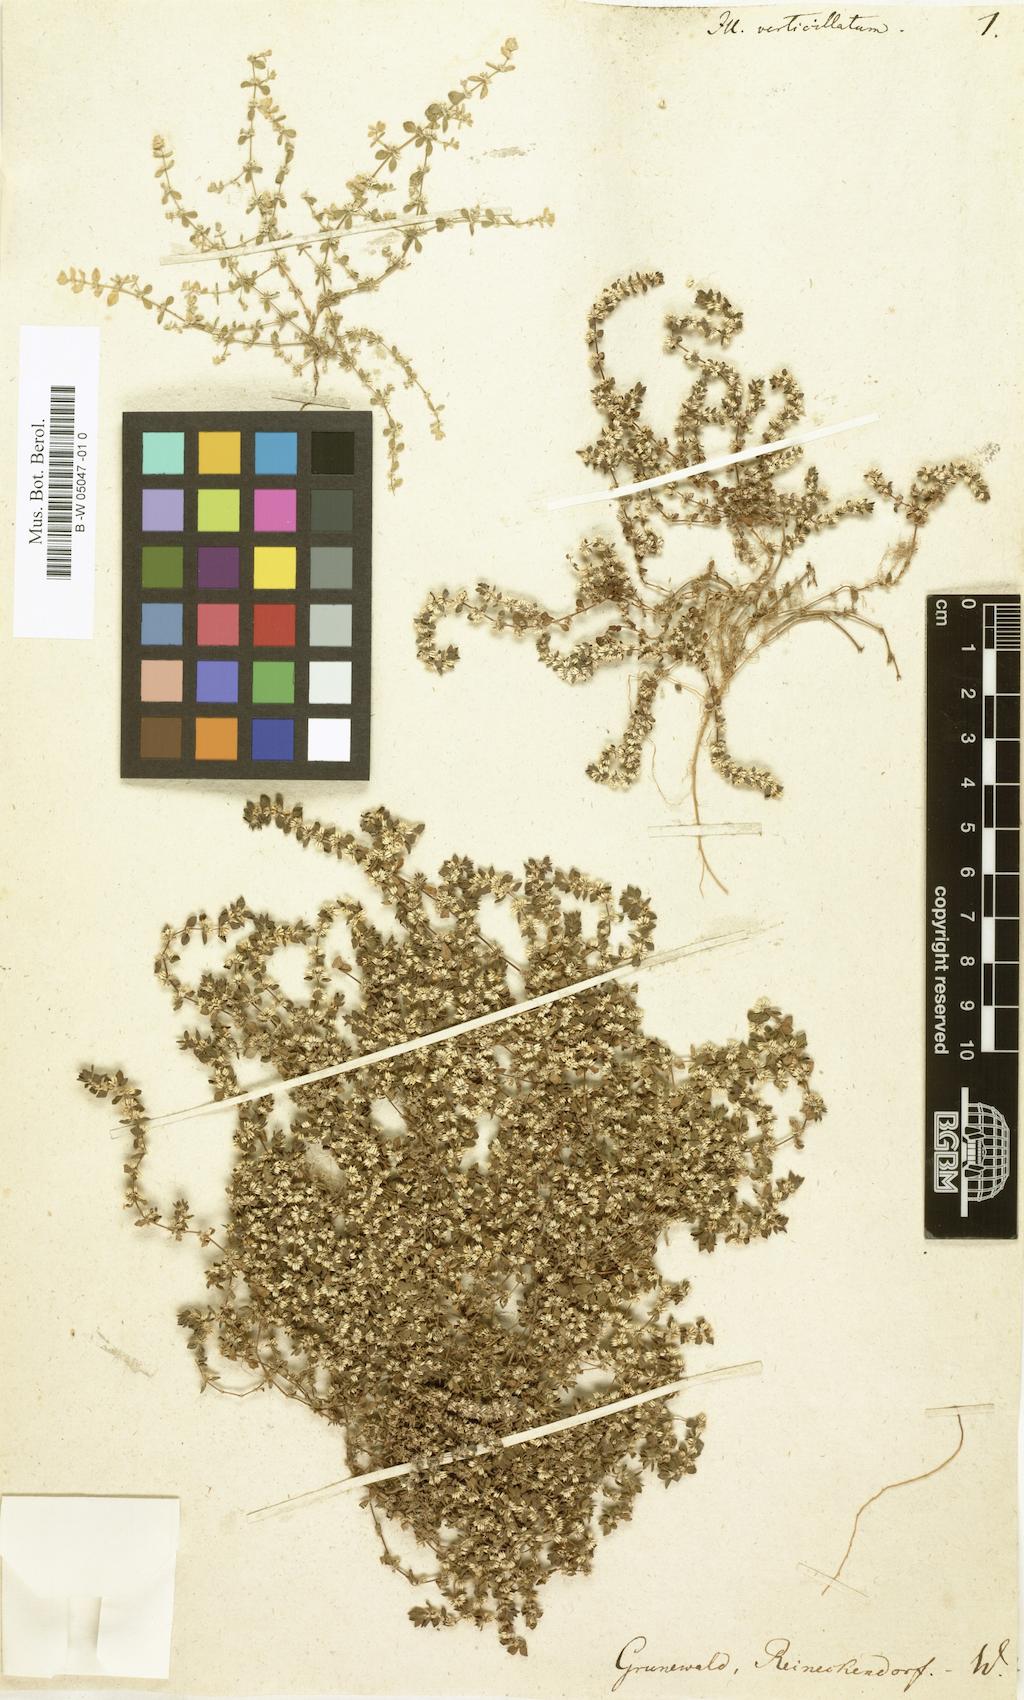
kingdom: Plantae
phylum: Tracheophyta
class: Magnoliopsida
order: Caryophyllales
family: Caryophyllaceae
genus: Illecebrum
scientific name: Illecebrum verticillatum
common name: Coral necklace
